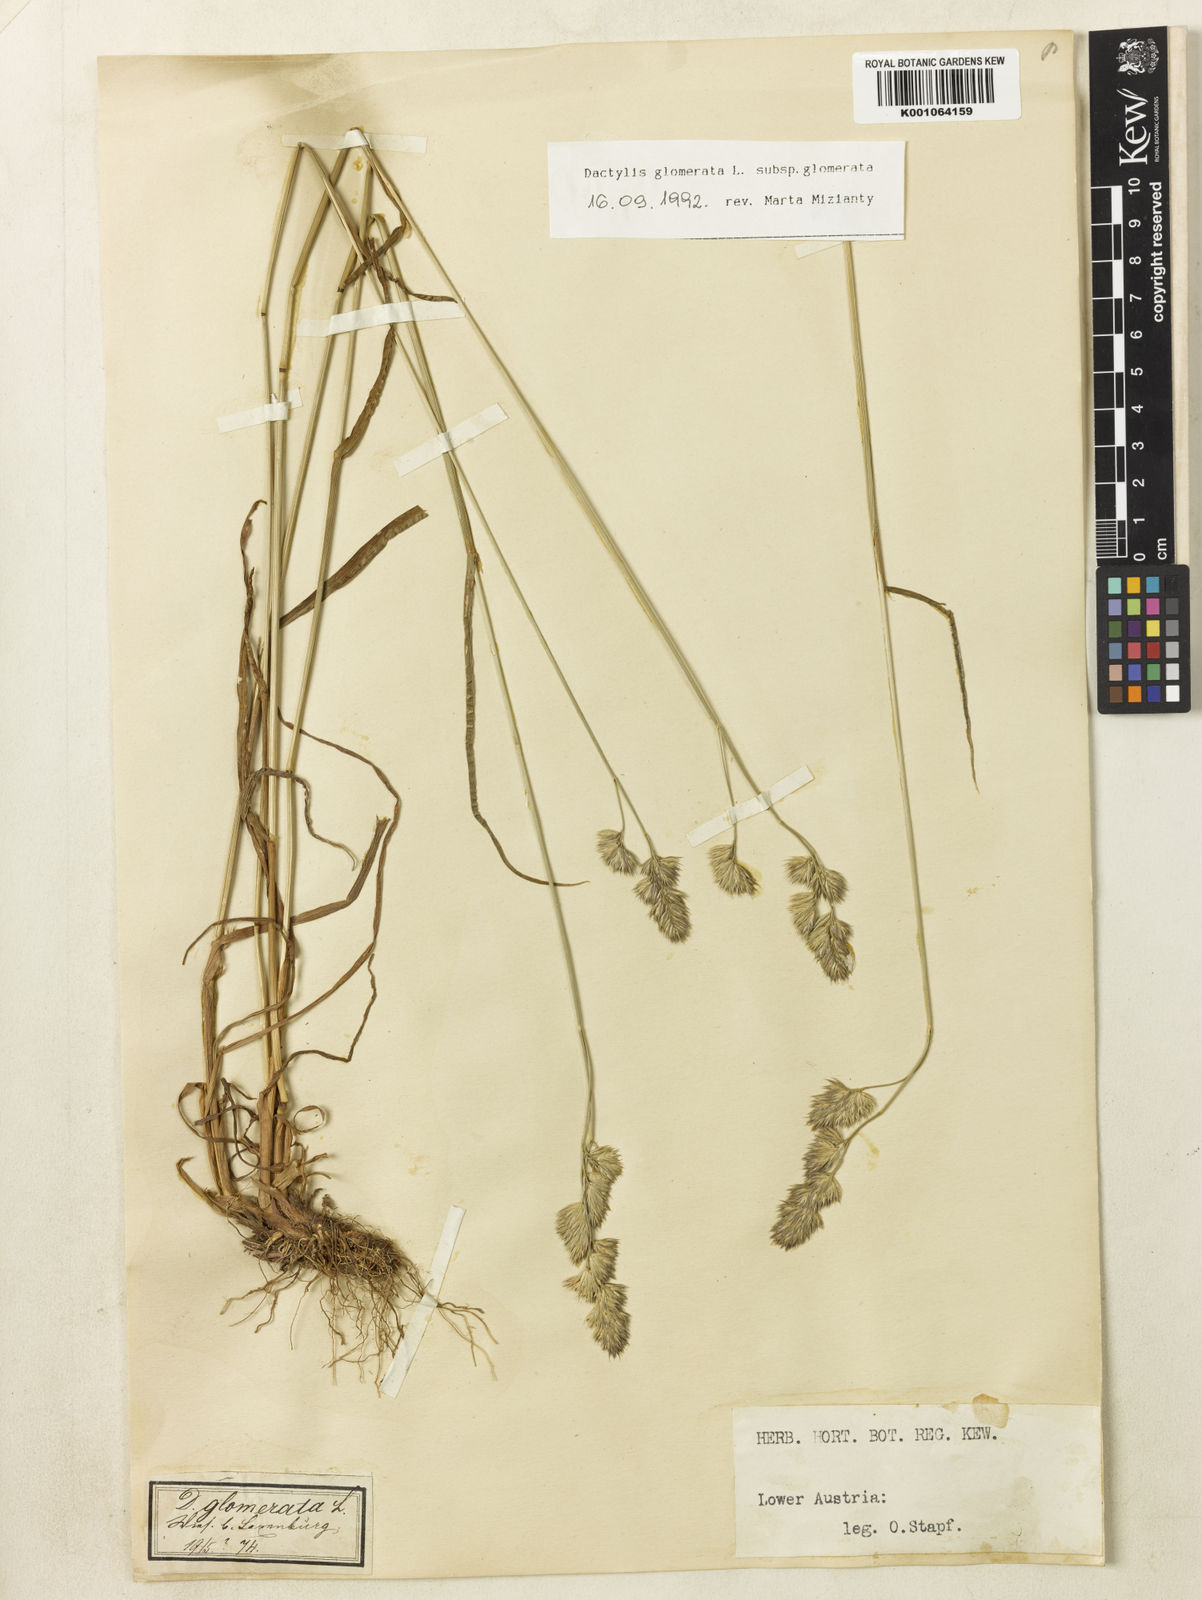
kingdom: Plantae
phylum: Tracheophyta
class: Liliopsida
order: Poales
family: Poaceae
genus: Dactylis
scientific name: Dactylis glomerata
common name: Orchardgrass
